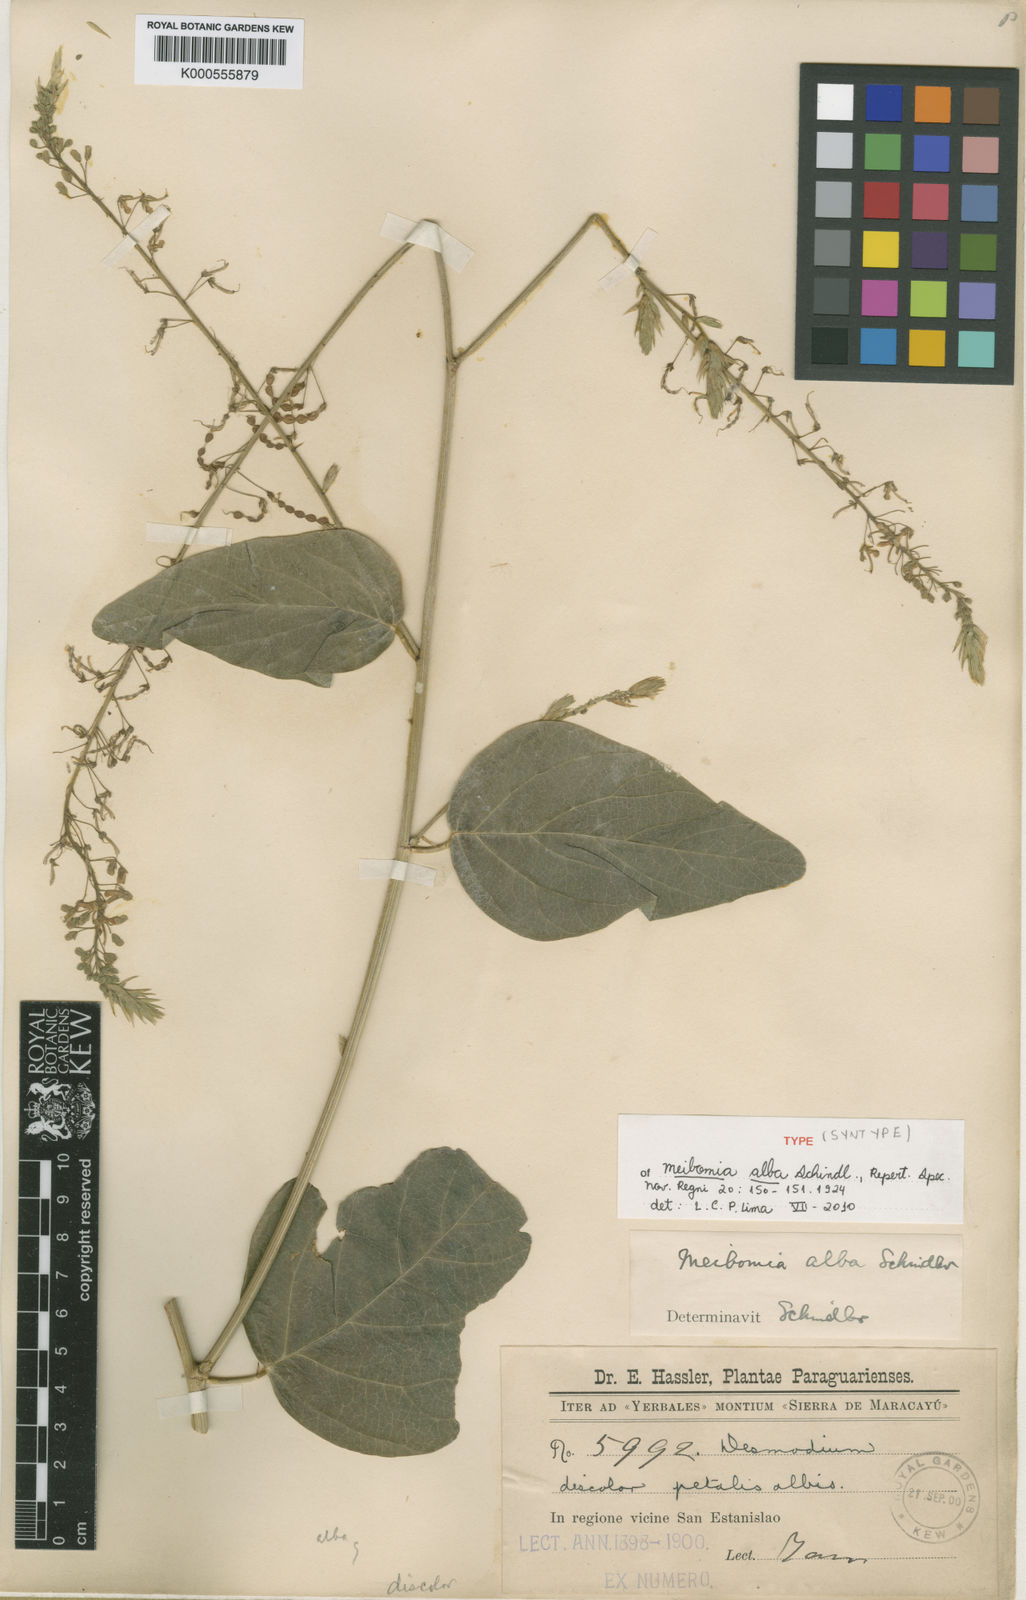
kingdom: Plantae
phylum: Tracheophyta
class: Magnoliopsida
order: Fabales
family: Fabaceae
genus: Desmodium
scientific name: Desmodium hassleri
